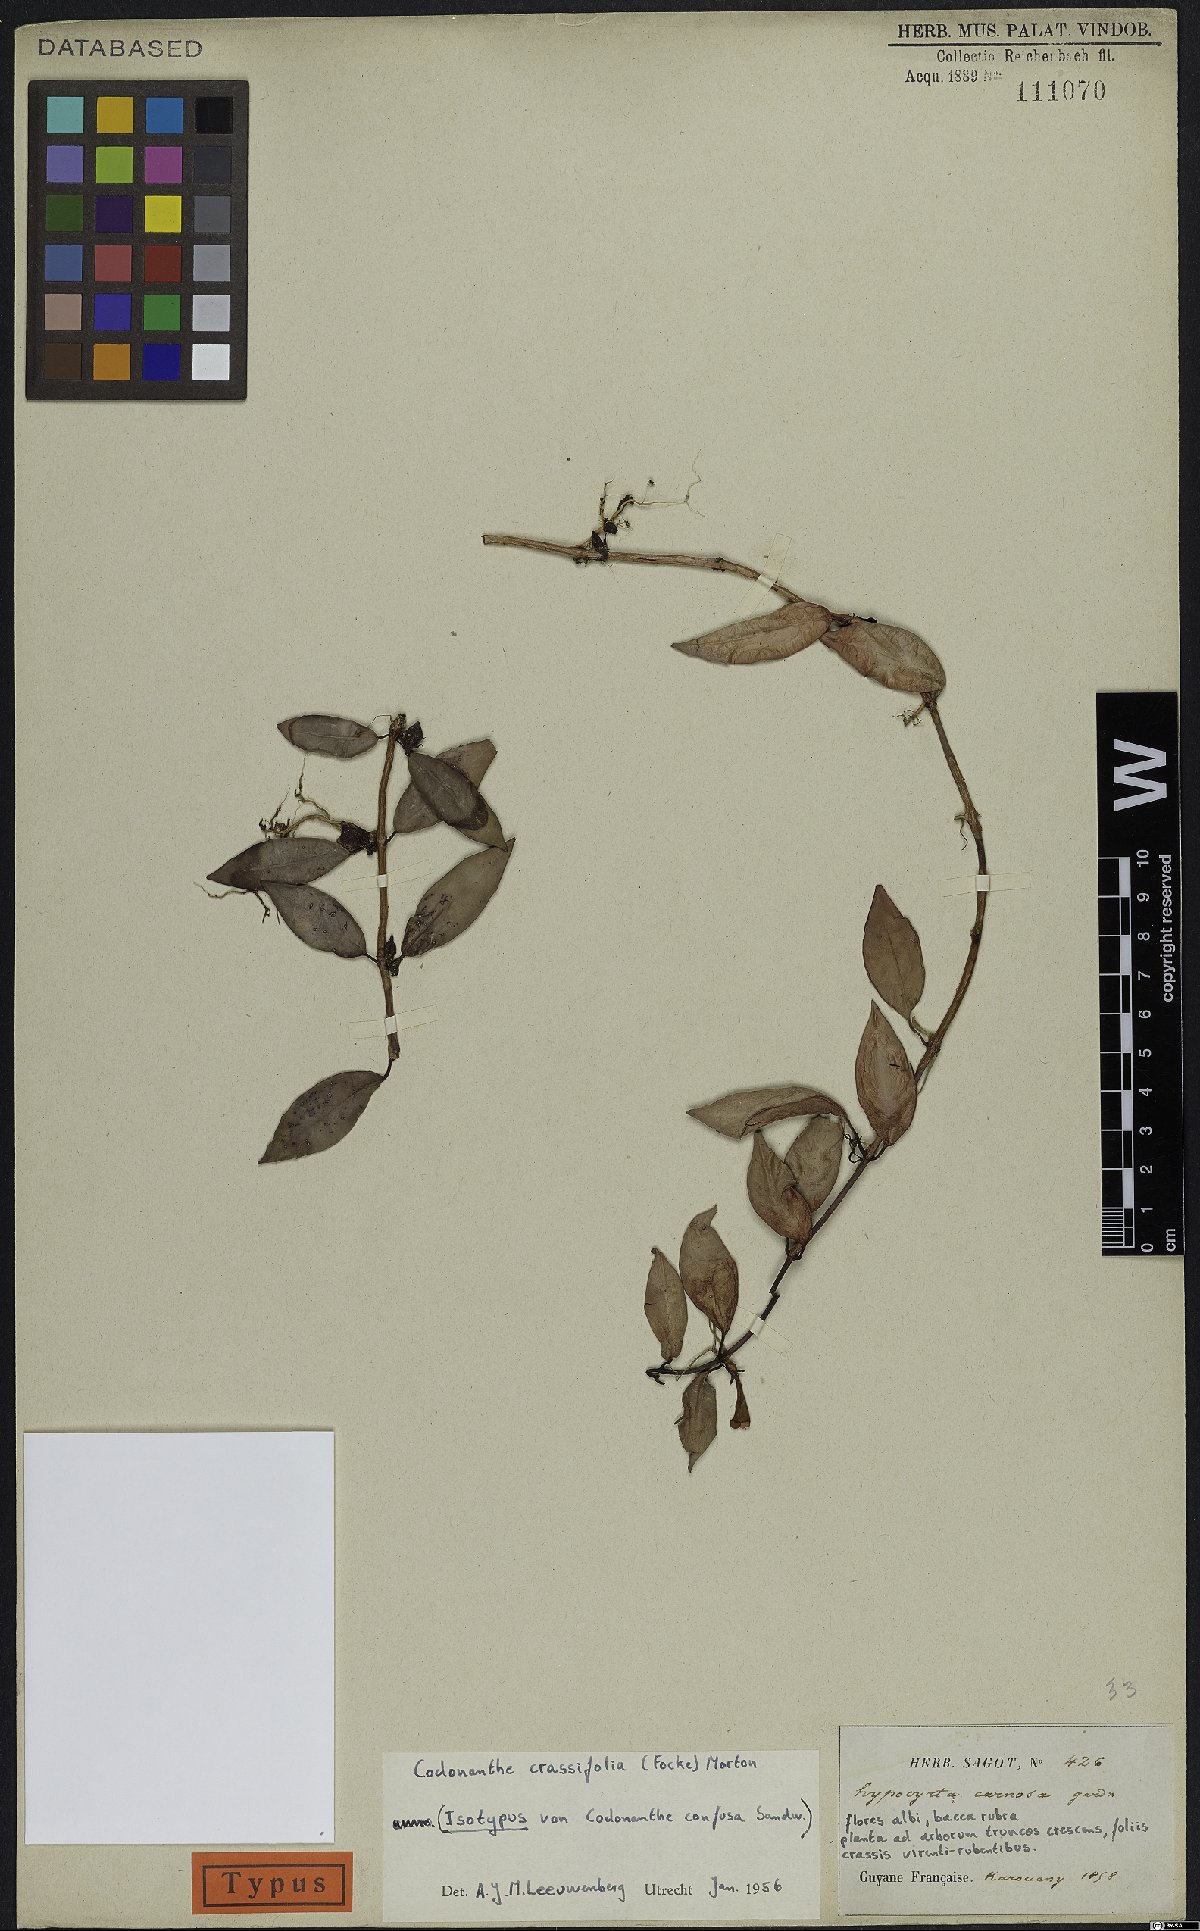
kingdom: Plantae
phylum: Tracheophyta
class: Magnoliopsida
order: Lamiales
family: Gesneriaceae
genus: Codonanthopsis
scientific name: Codonanthopsis crassifolia
